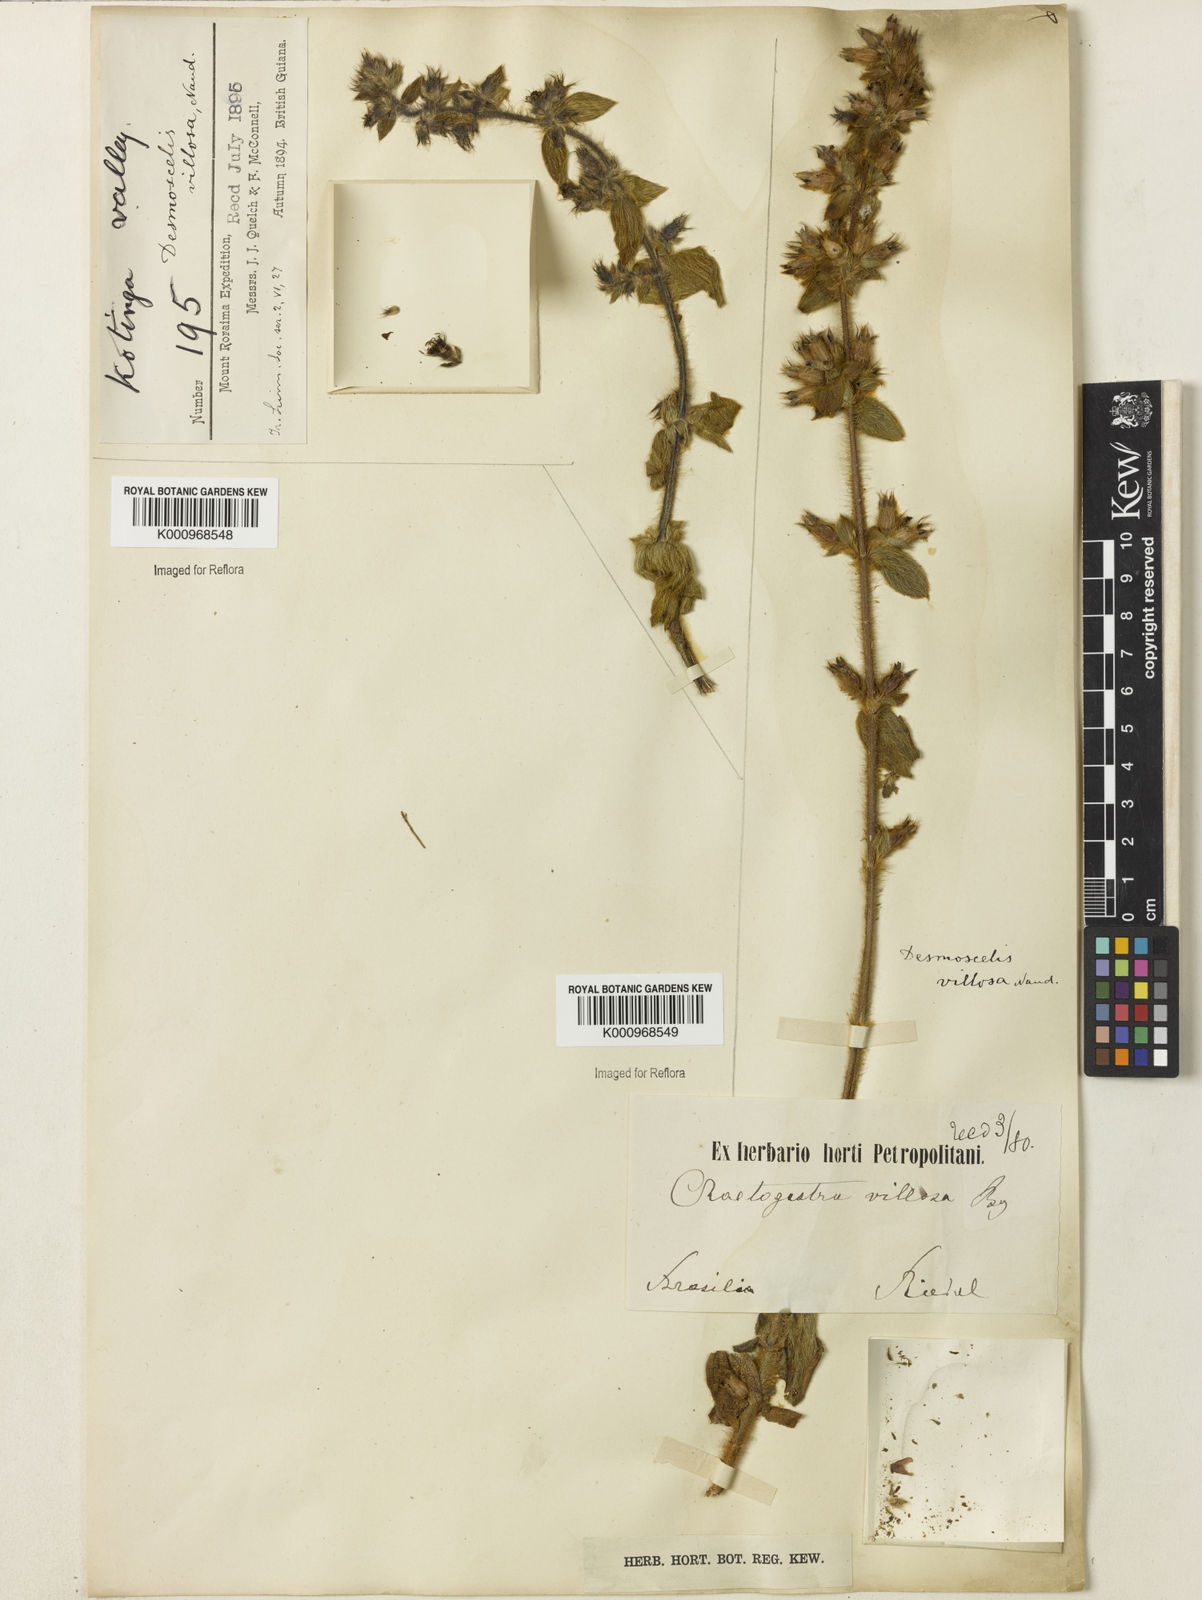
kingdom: Plantae
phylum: Tracheophyta
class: Magnoliopsida
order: Myrtales
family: Melastomataceae
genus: Desmoscelis
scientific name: Desmoscelis villosa
